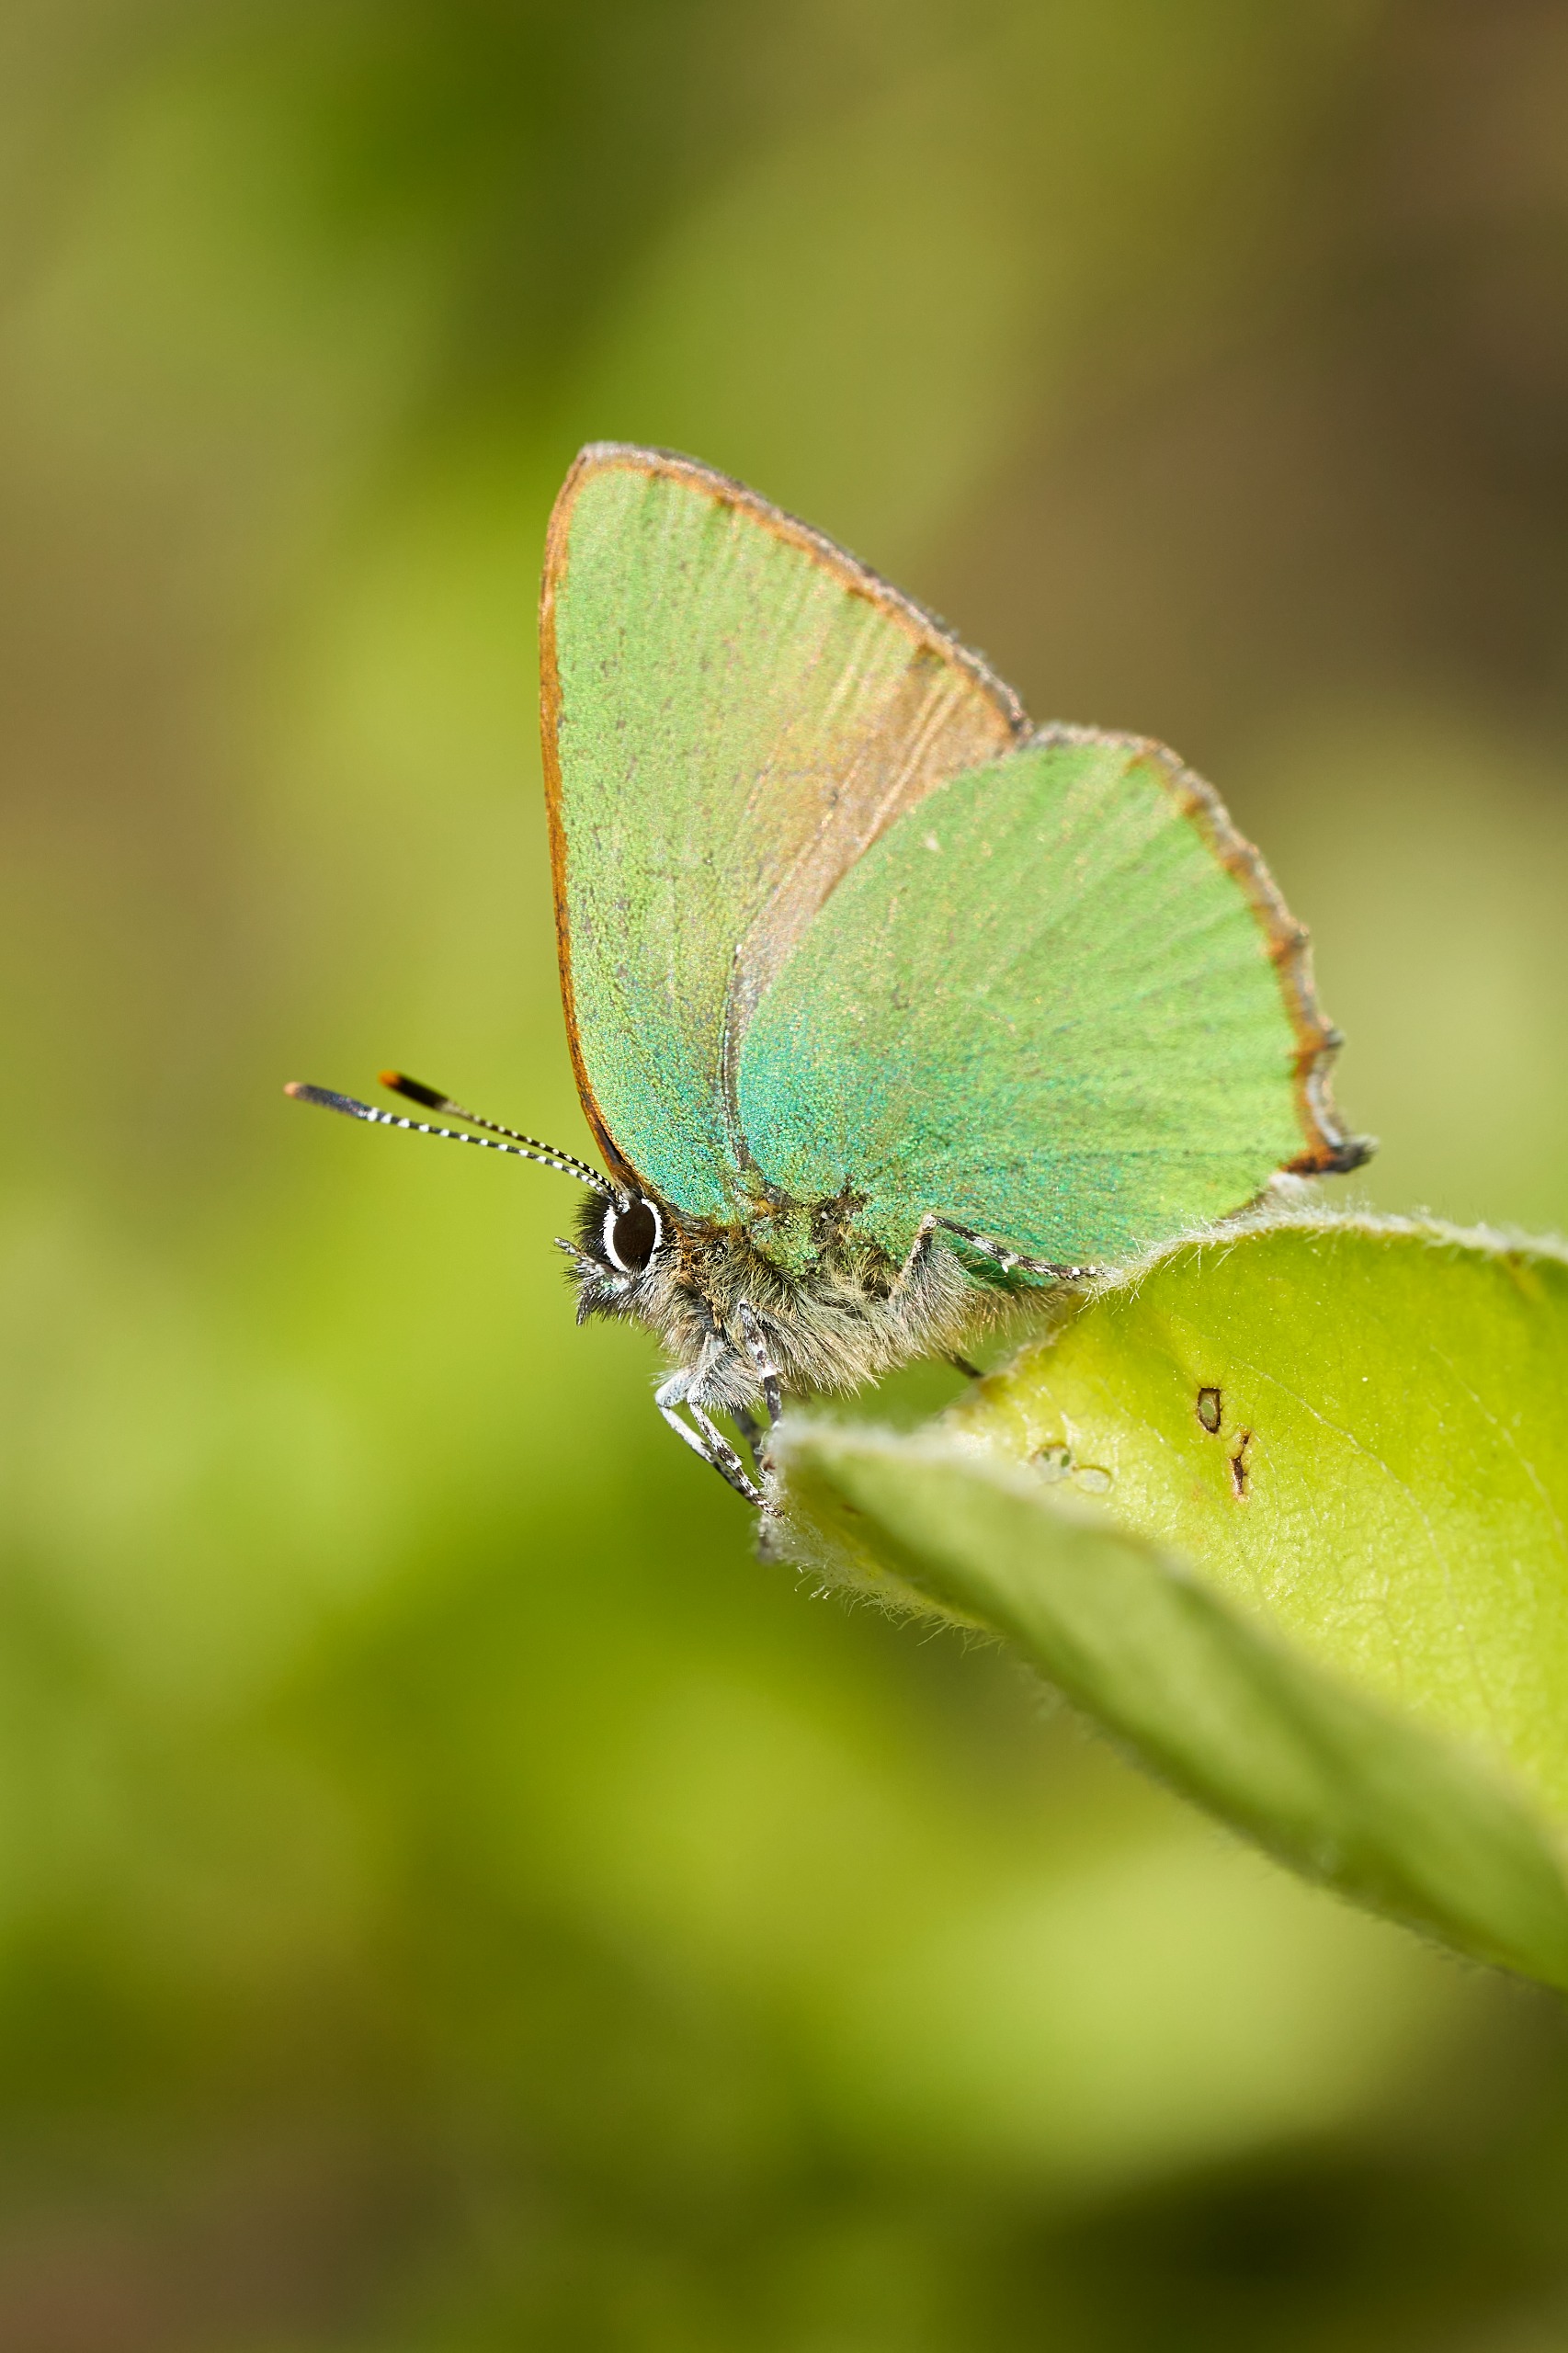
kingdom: Animalia
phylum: Arthropoda
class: Insecta
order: Lepidoptera
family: Lycaenidae
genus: Callophrys
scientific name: Callophrys rubi
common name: Grøn busksommerfugl
